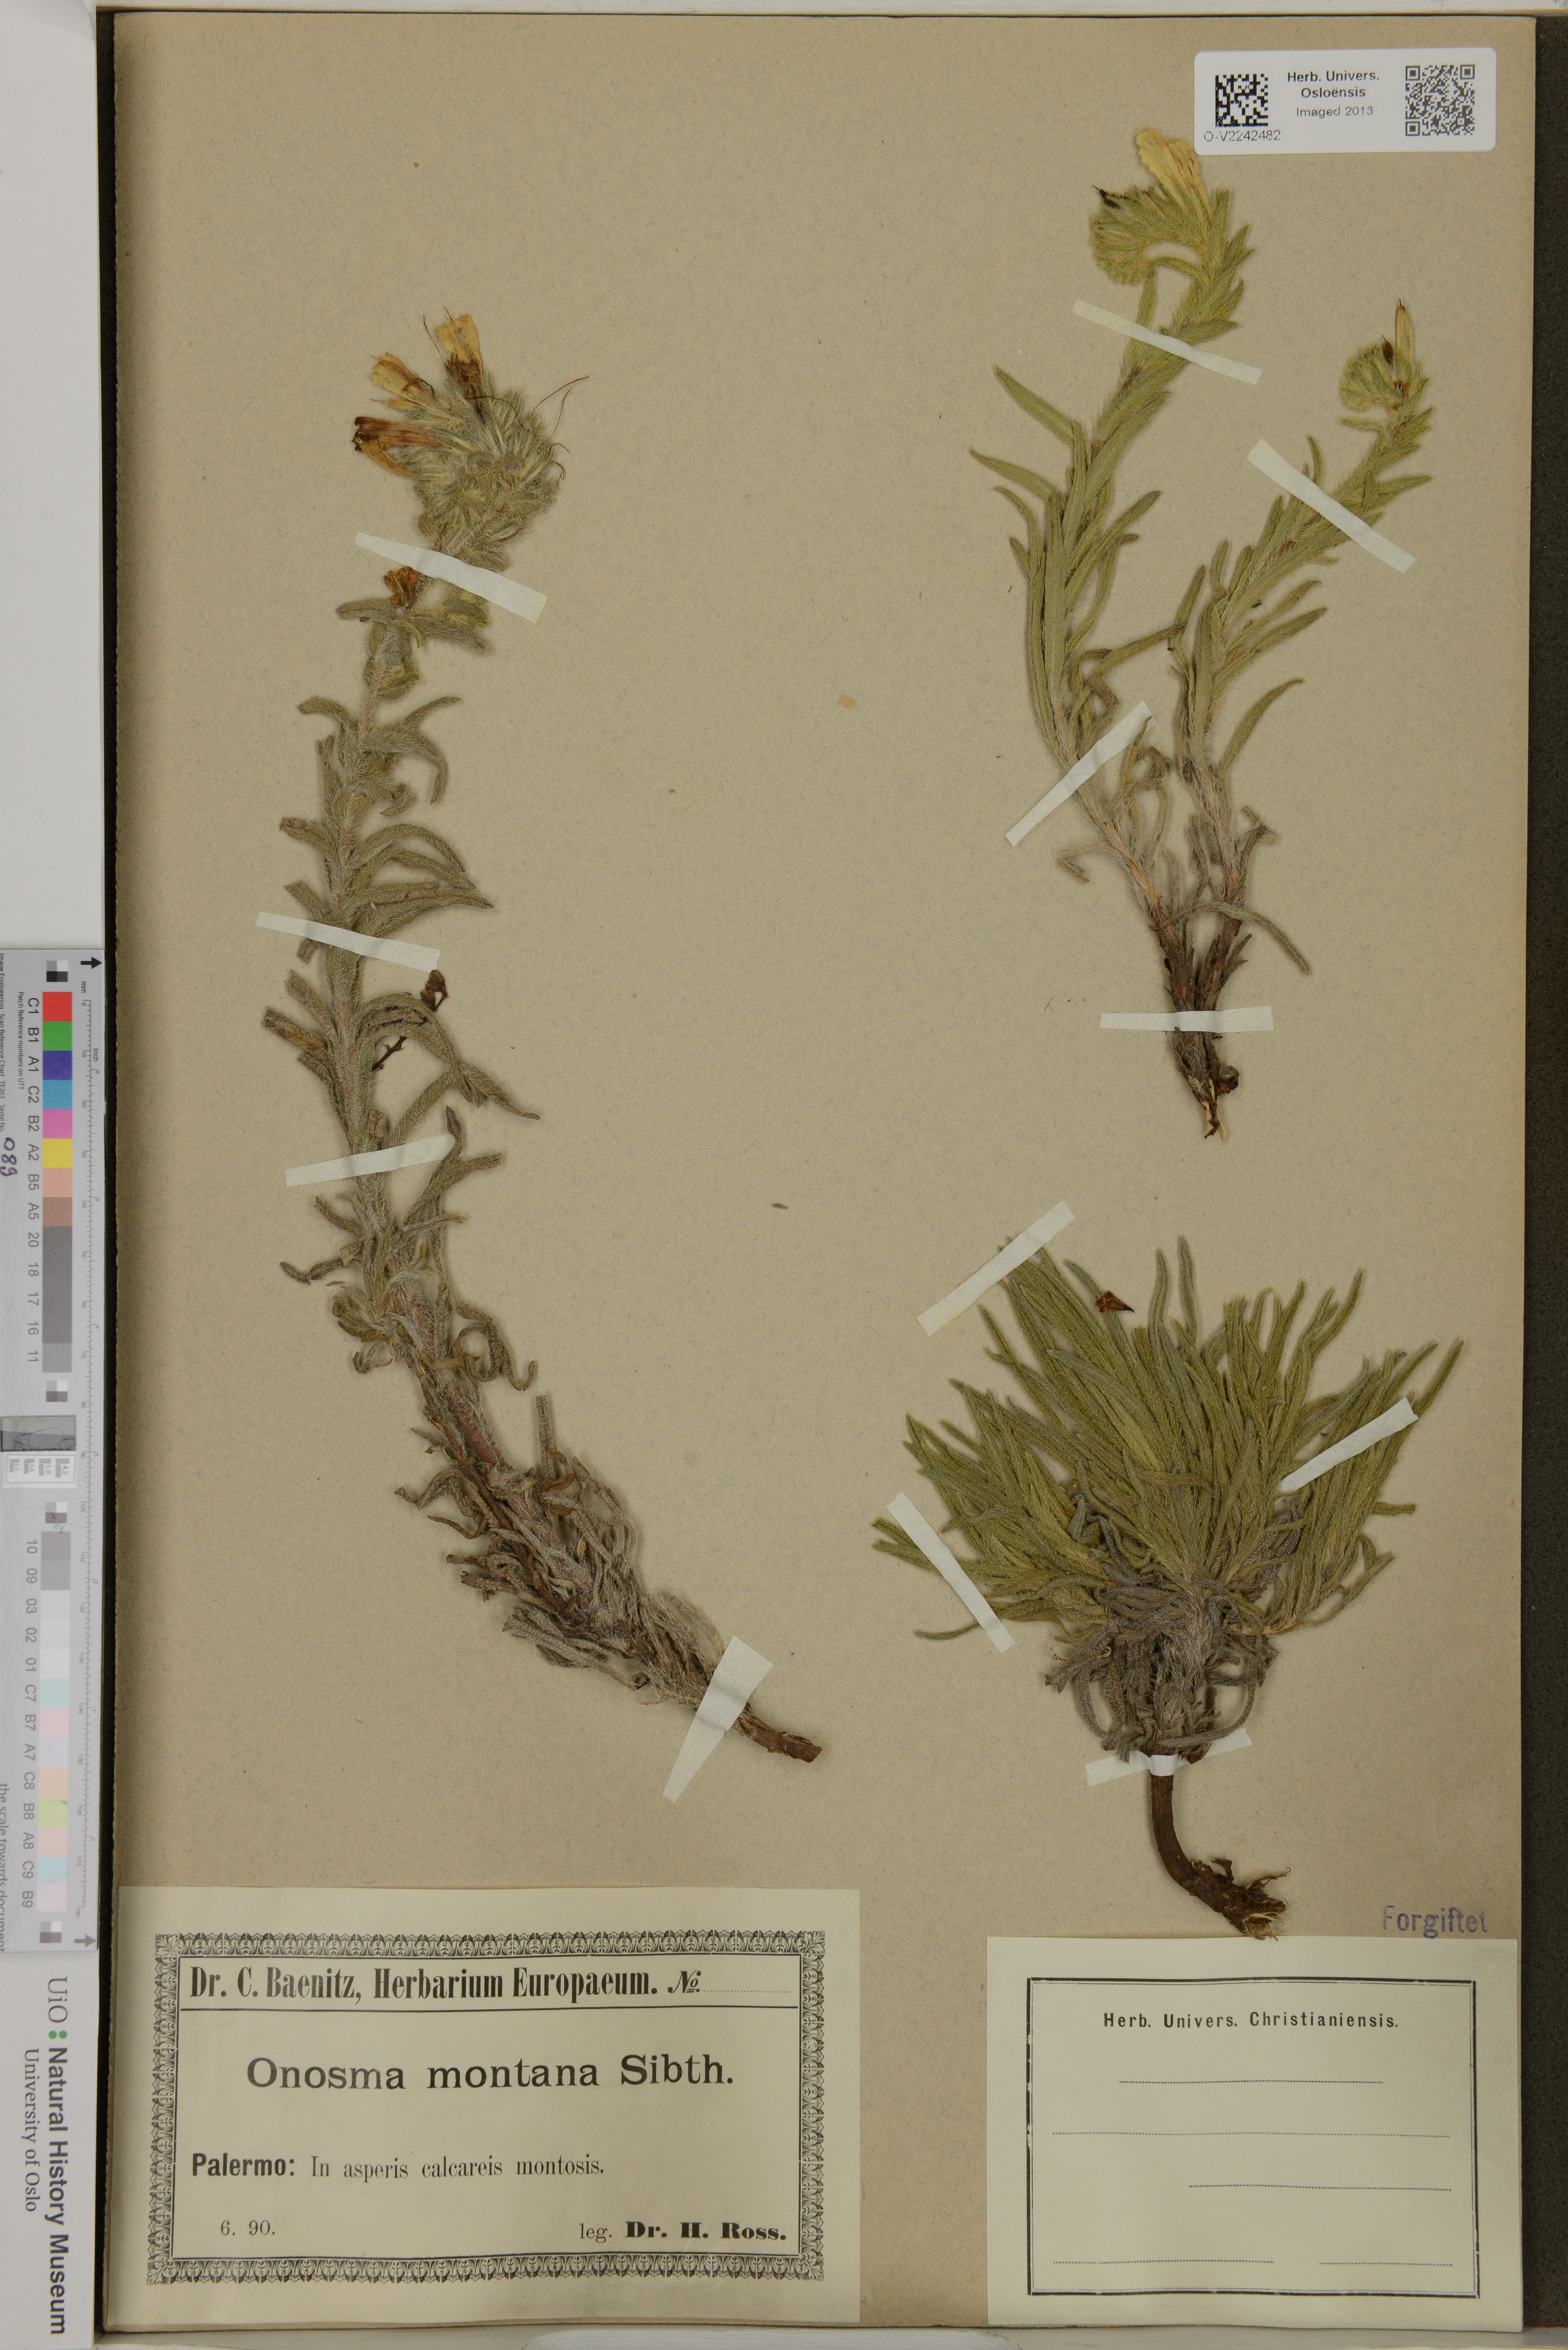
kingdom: Plantae
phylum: Tracheophyta
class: Magnoliopsida
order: Boraginales
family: Boraginaceae
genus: Onosma
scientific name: Onosma montana
